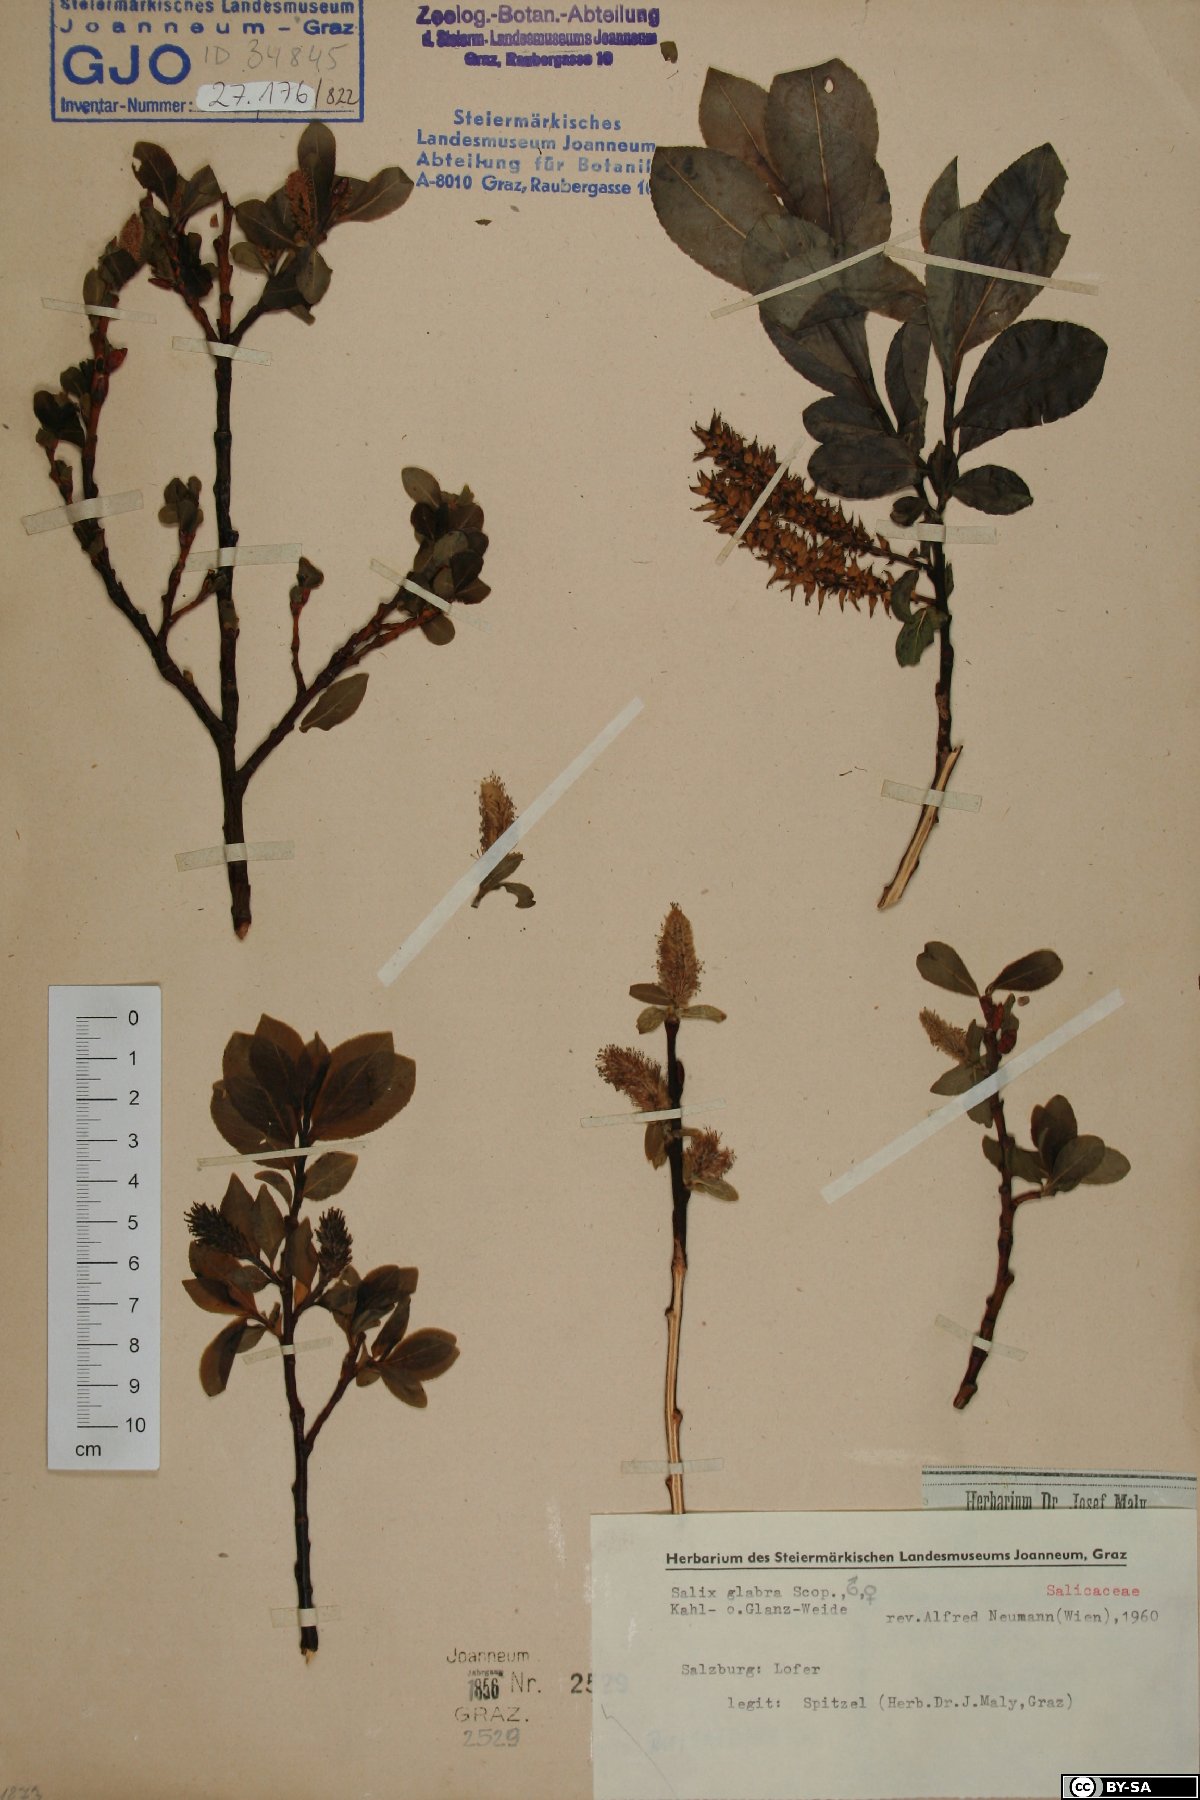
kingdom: Plantae
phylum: Tracheophyta
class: Magnoliopsida
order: Malpighiales
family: Salicaceae
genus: Salix
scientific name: Salix glabra
